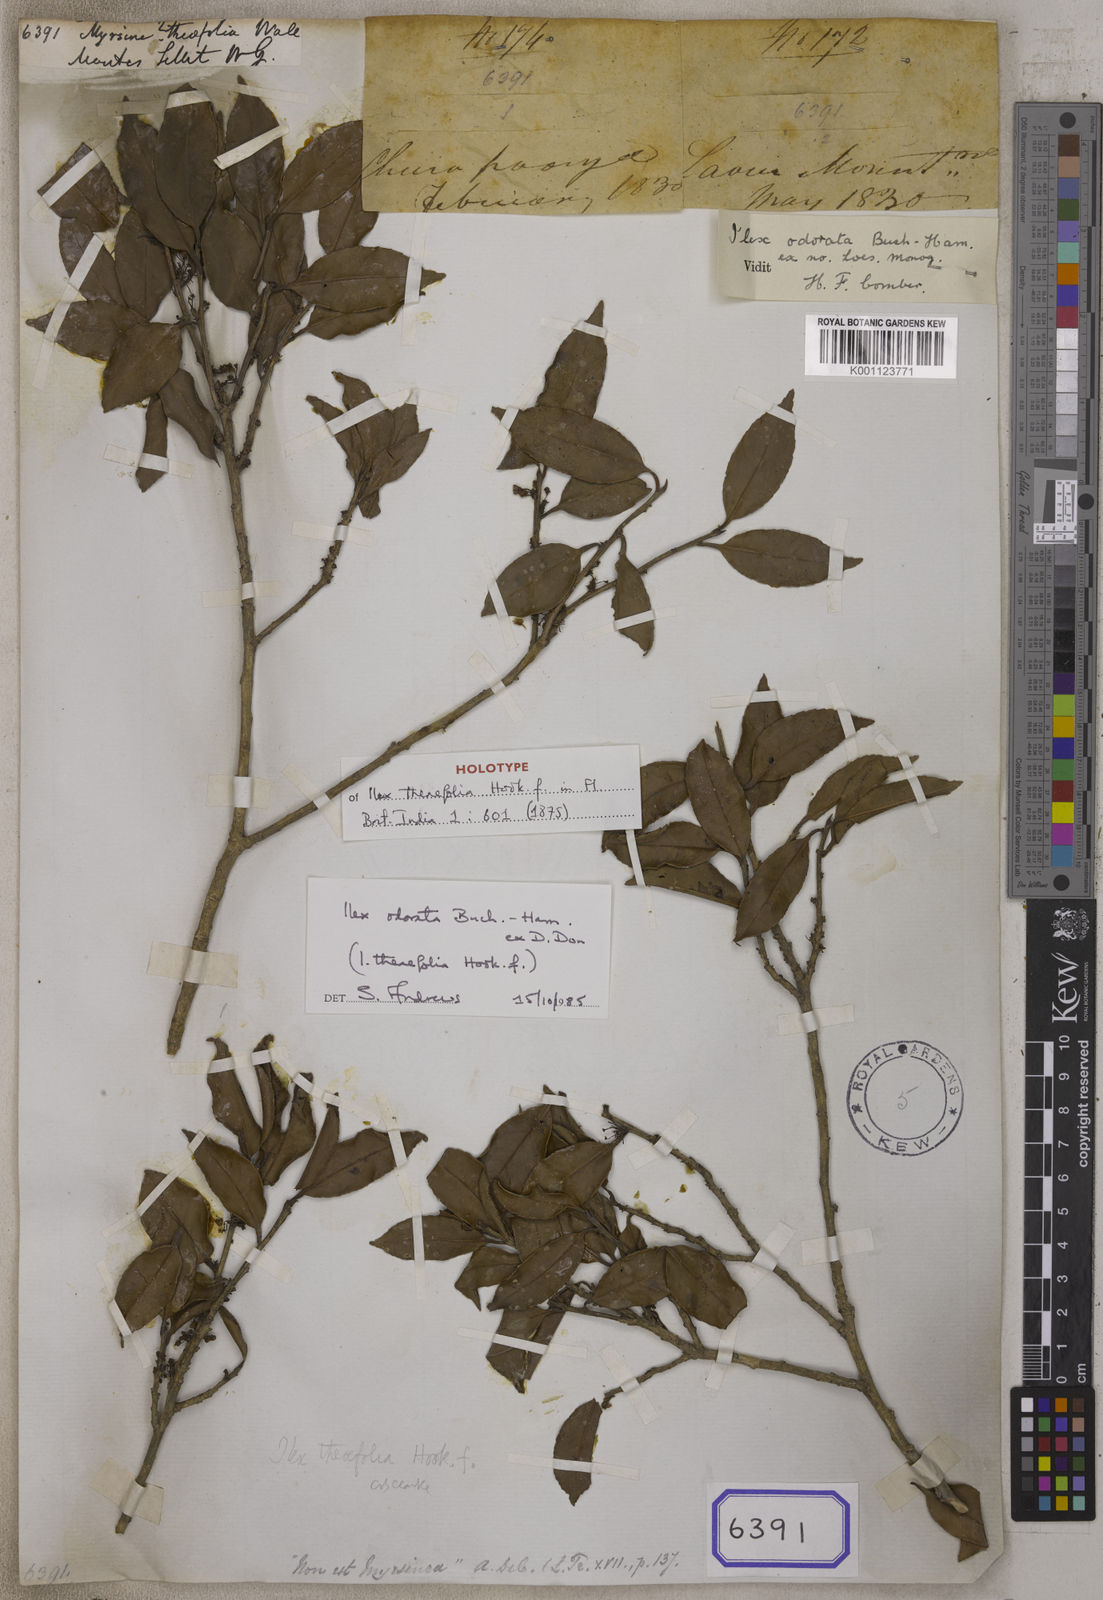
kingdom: Plantae
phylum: Tracheophyta
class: Magnoliopsida
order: Aquifoliales
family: Aquifoliaceae
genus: Ilex
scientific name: Ilex odorata
